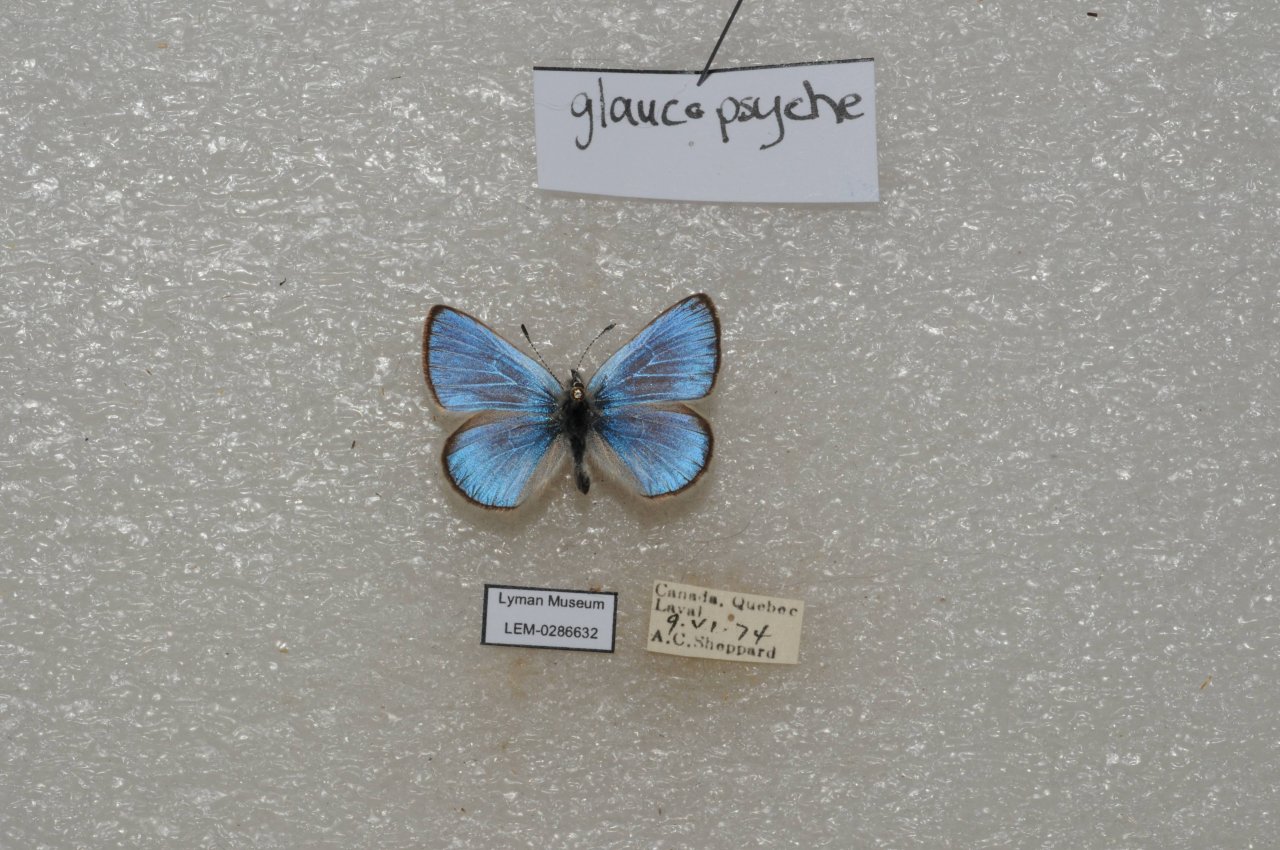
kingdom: Animalia
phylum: Arthropoda
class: Insecta
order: Lepidoptera
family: Lycaenidae
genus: Glaucopsyche
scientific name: Glaucopsyche lygdamus
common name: Silvery Blue
